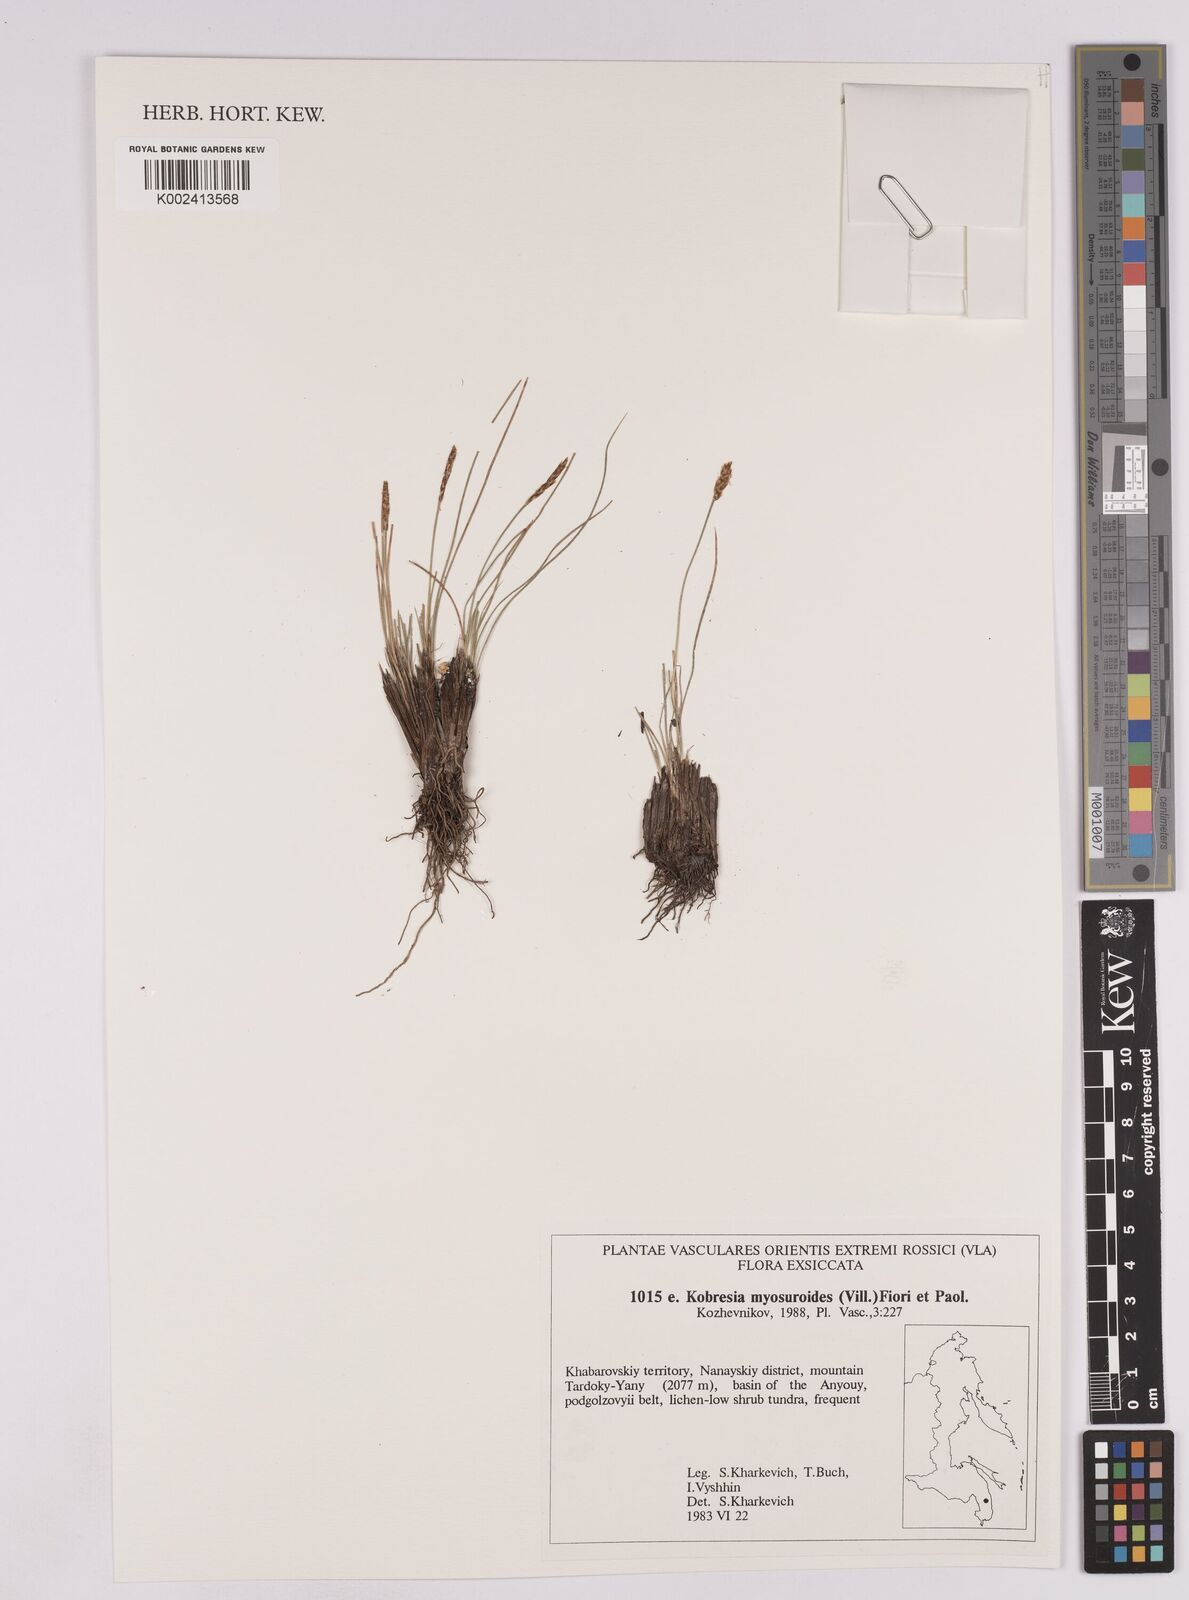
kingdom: Plantae
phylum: Tracheophyta
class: Liliopsida
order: Poales
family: Cyperaceae
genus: Carex
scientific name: Carex myosuroides
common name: Bellard's bog sedge
